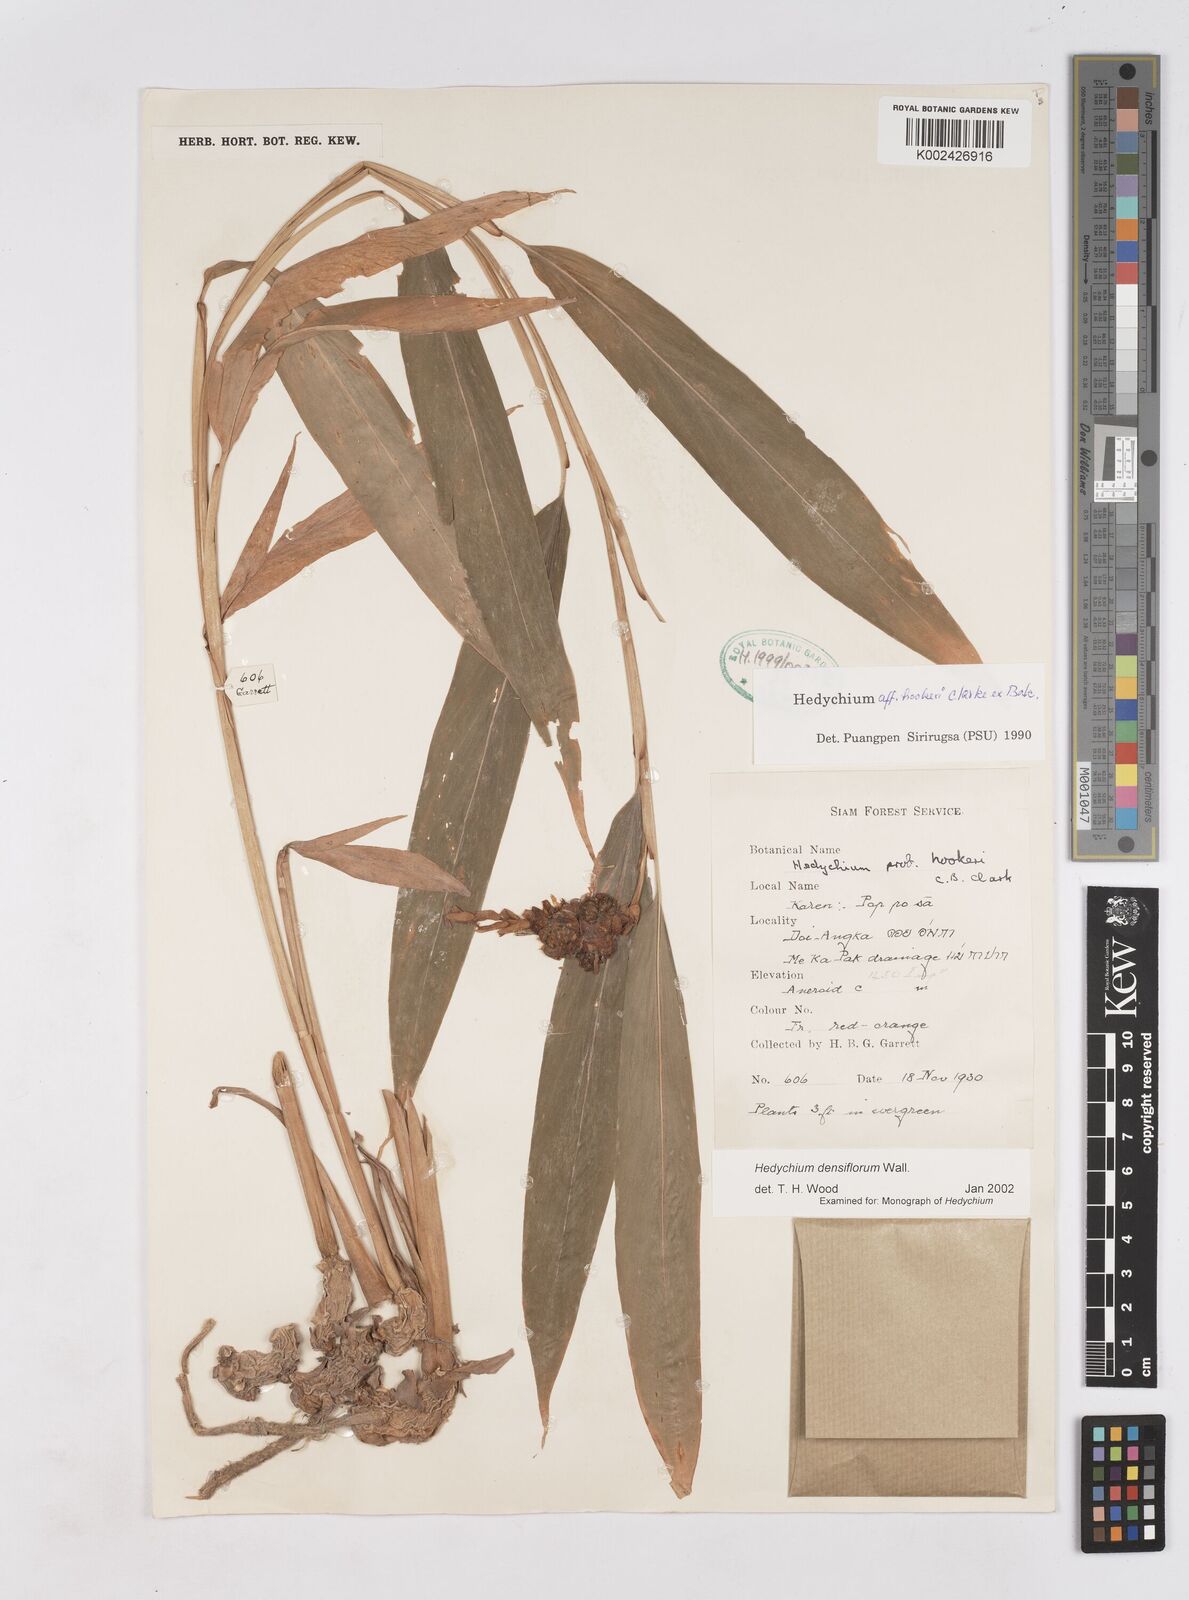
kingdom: Plantae
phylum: Tracheophyta
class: Liliopsida
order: Zingiberales
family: Zingiberaceae
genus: Hedychium
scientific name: Hedychium densiflorum
